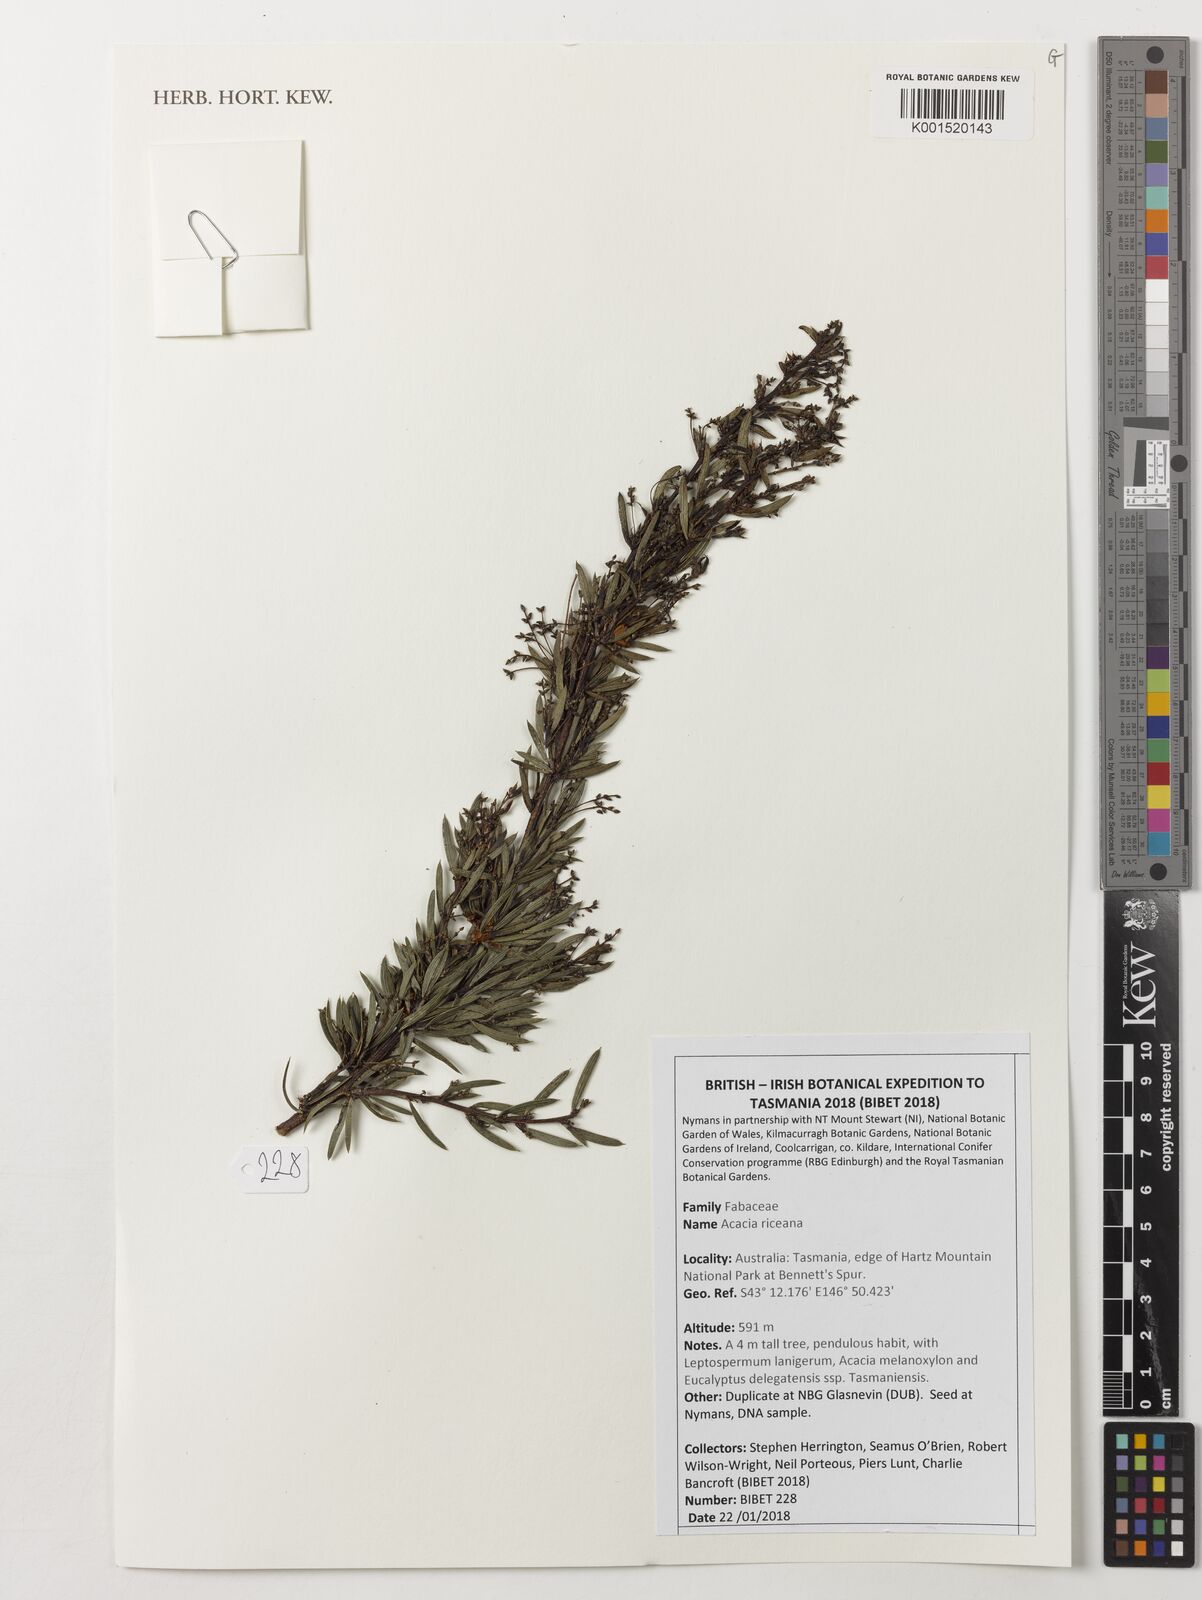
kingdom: Plantae
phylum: Tracheophyta
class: Magnoliopsida
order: Fabales
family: Fabaceae
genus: Acacia
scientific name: Acacia riceana
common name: Rice's wattle
